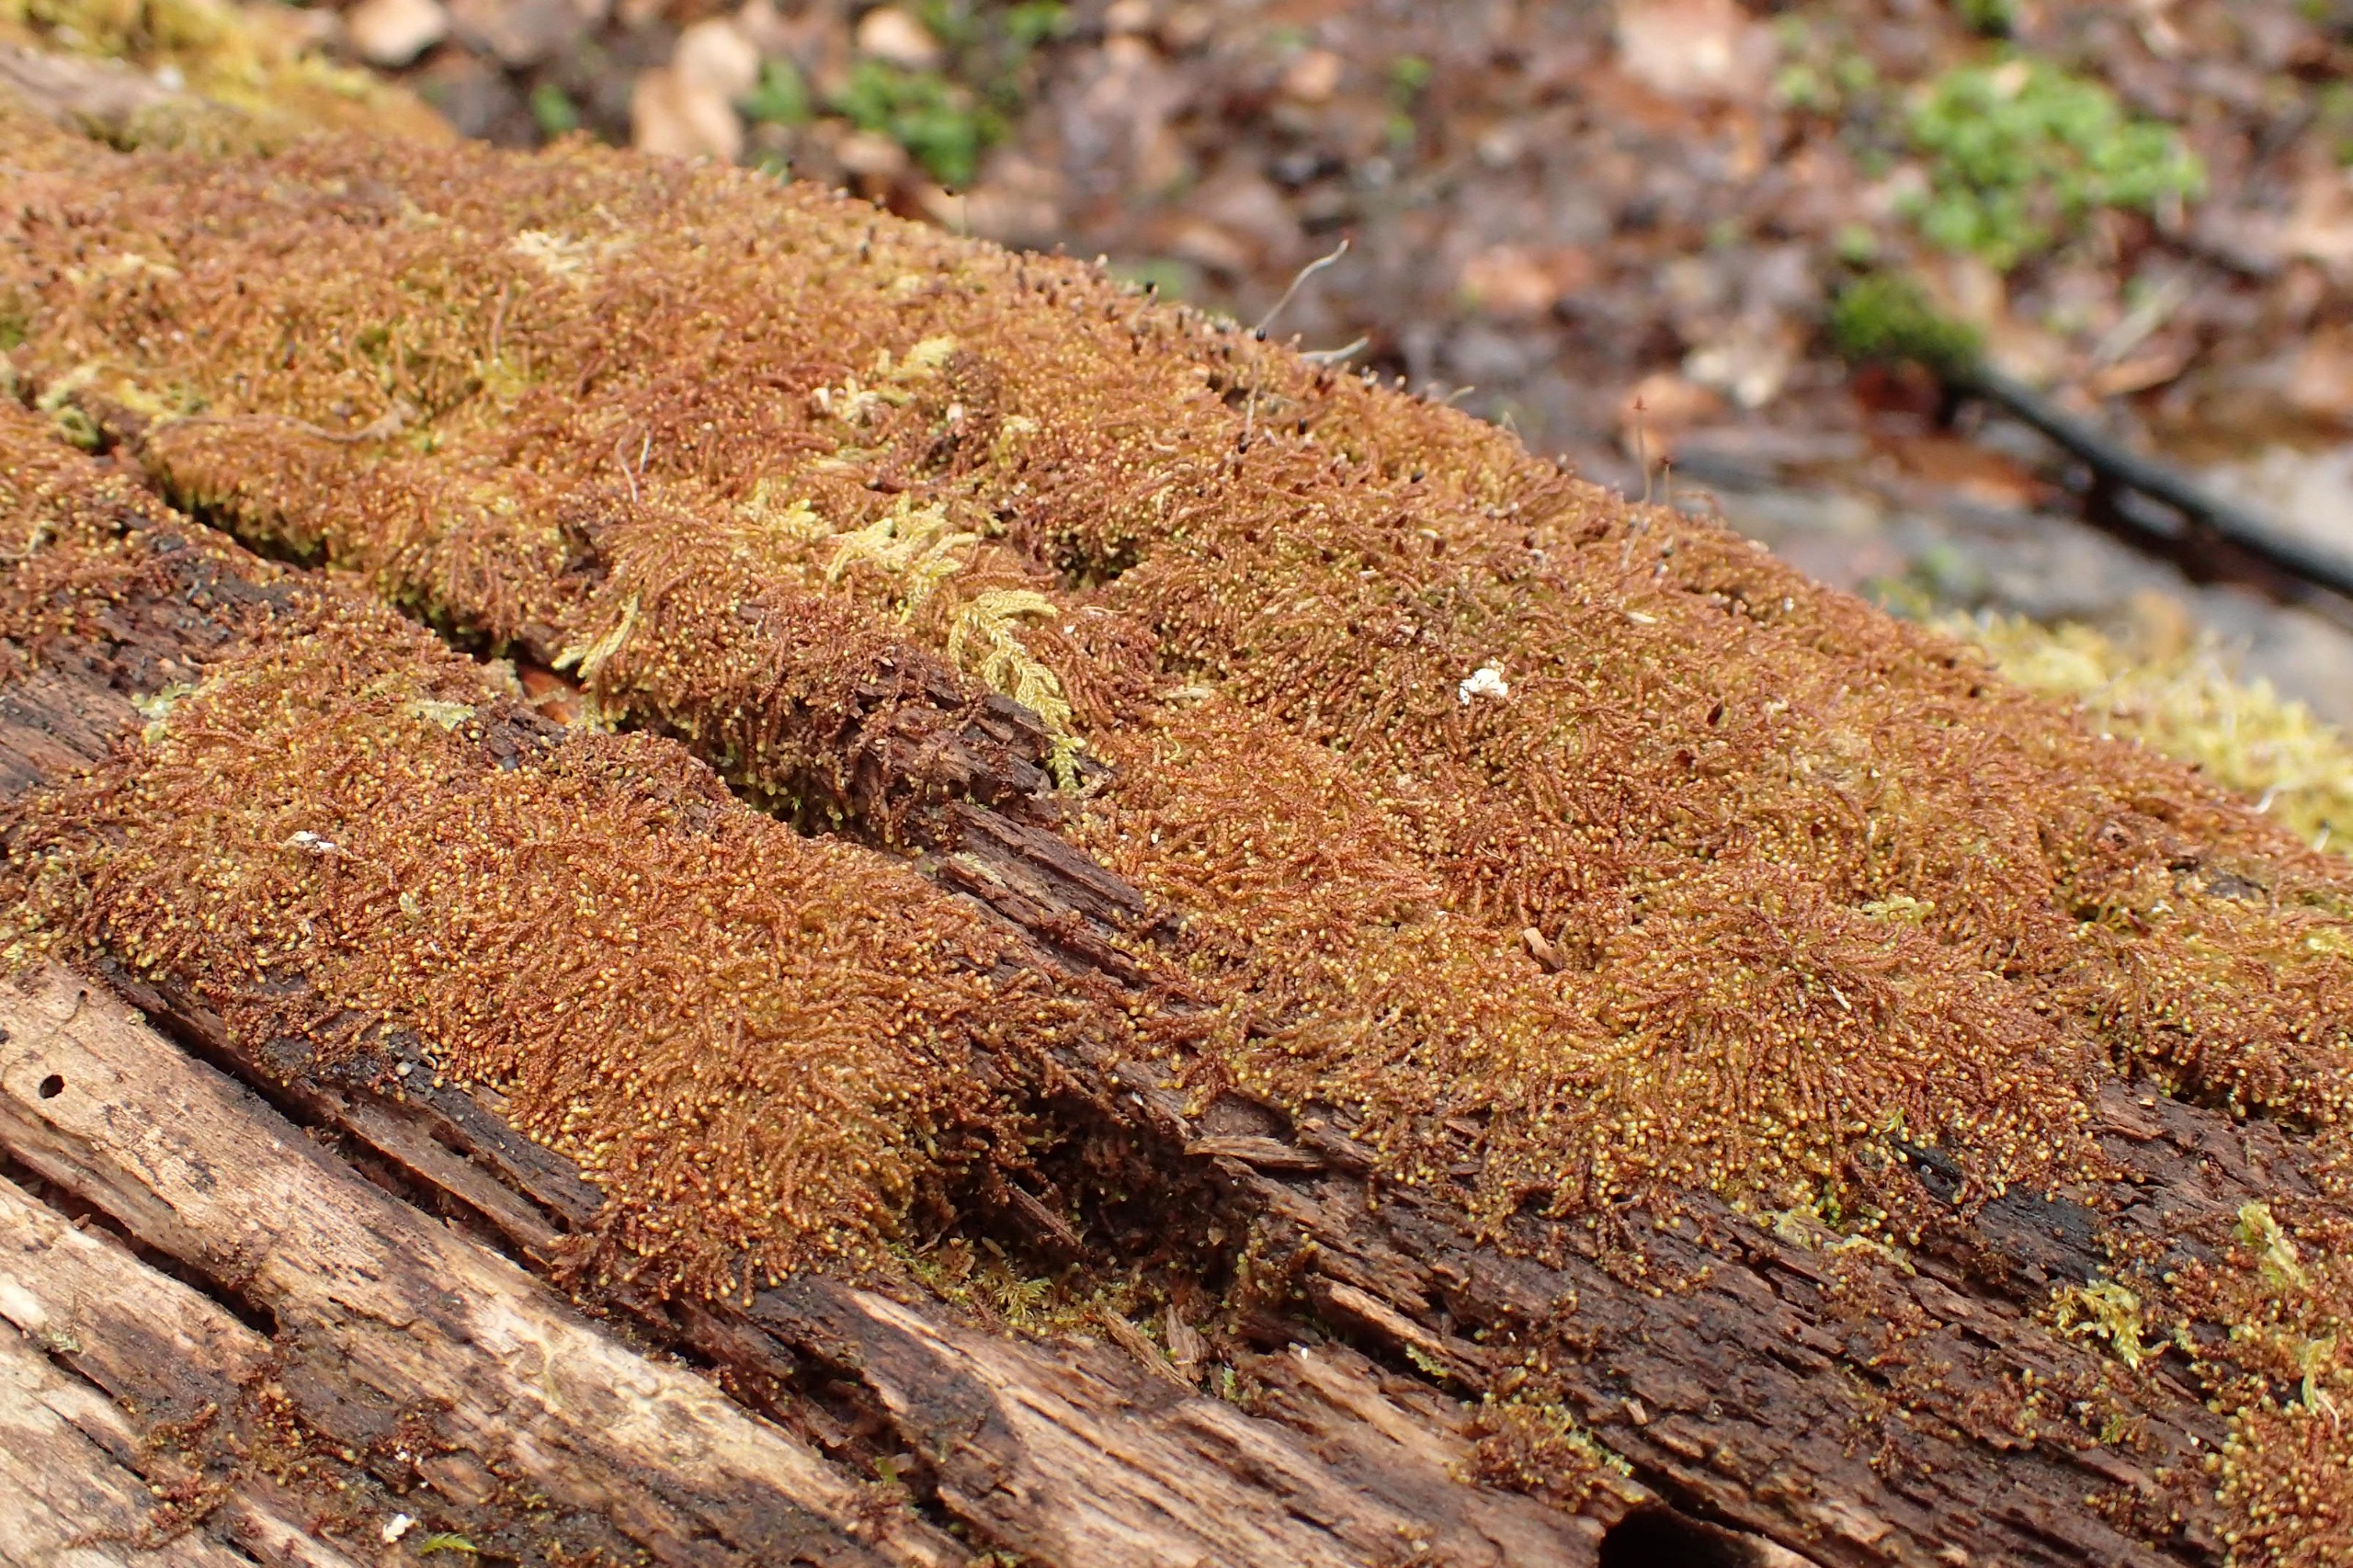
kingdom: Plantae
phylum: Marchantiophyta
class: Jungermanniopsida
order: Jungermanniales
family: Cephaloziaceae
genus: Nowellia
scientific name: Nowellia curvifolia
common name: Krumbladet stødmos
